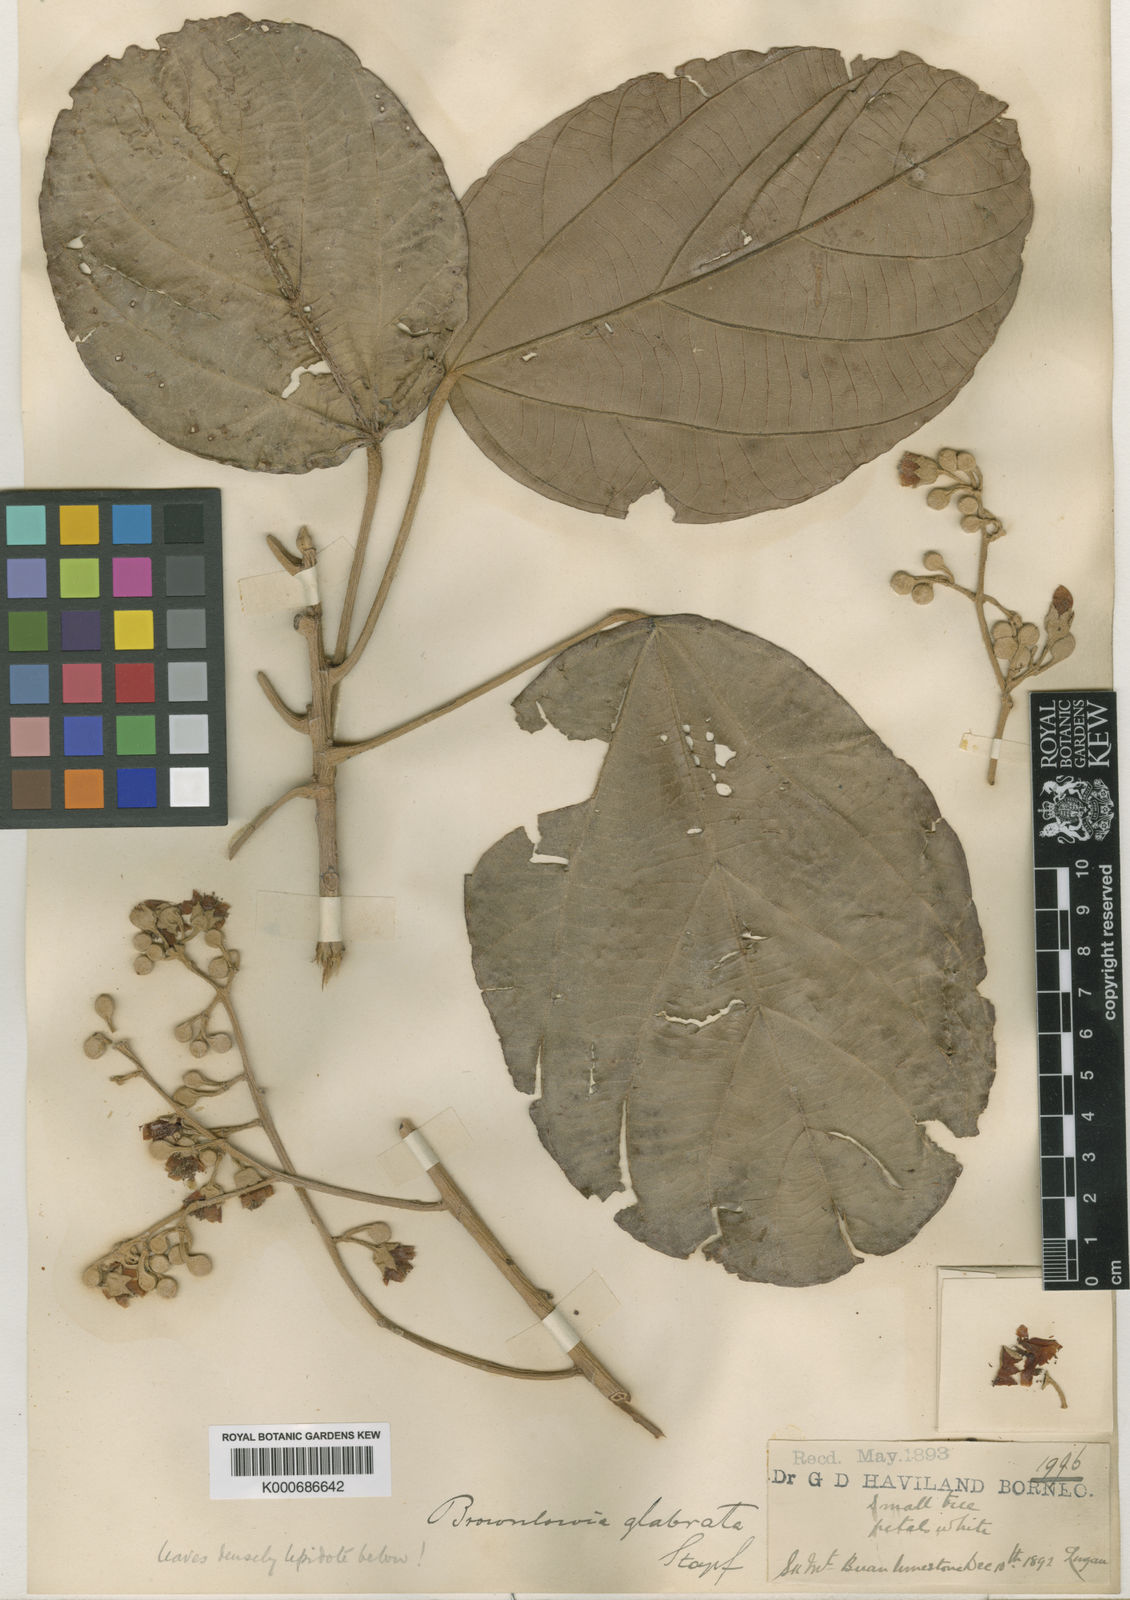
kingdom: Plantae
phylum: Tracheophyta
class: Magnoliopsida
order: Malvales
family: Malvaceae
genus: Brownlowia
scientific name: Brownlowia glabrata
